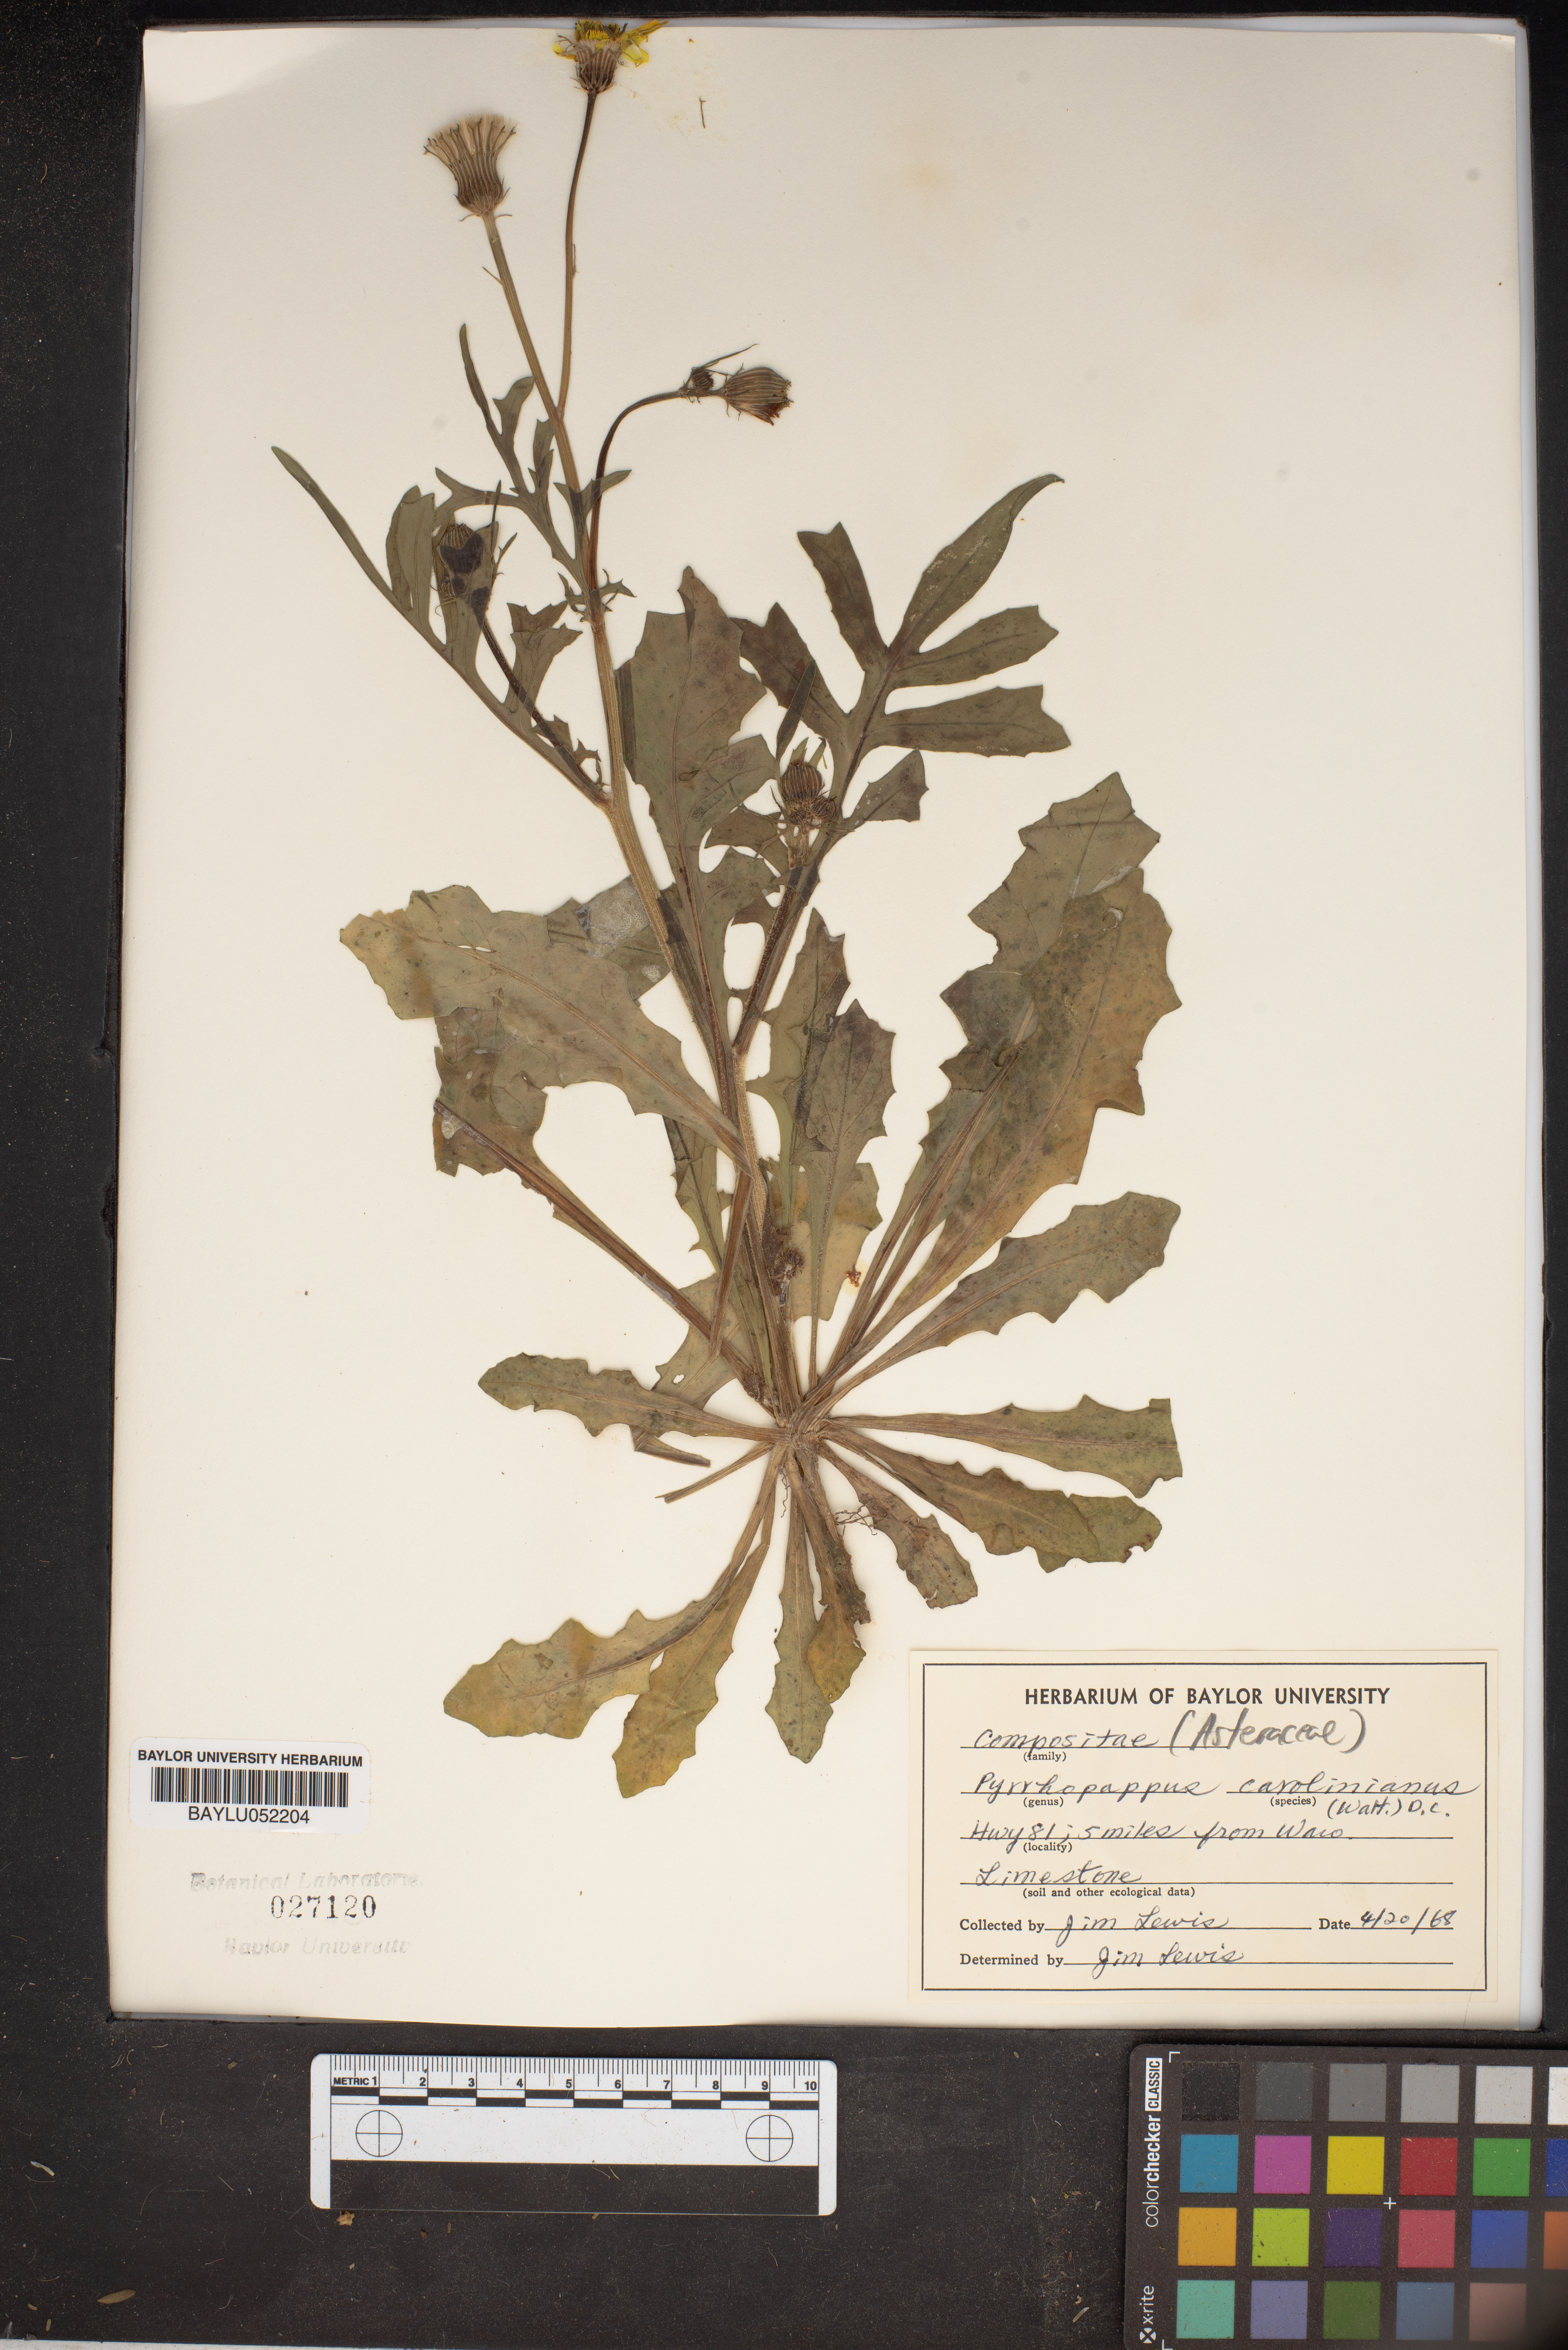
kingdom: Plantae
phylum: Tracheophyta
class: Magnoliopsida
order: Asterales
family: Asteraceae
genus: Pyrrhopappus
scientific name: Pyrrhopappus carolinianus
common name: Carolina desert-chicory
